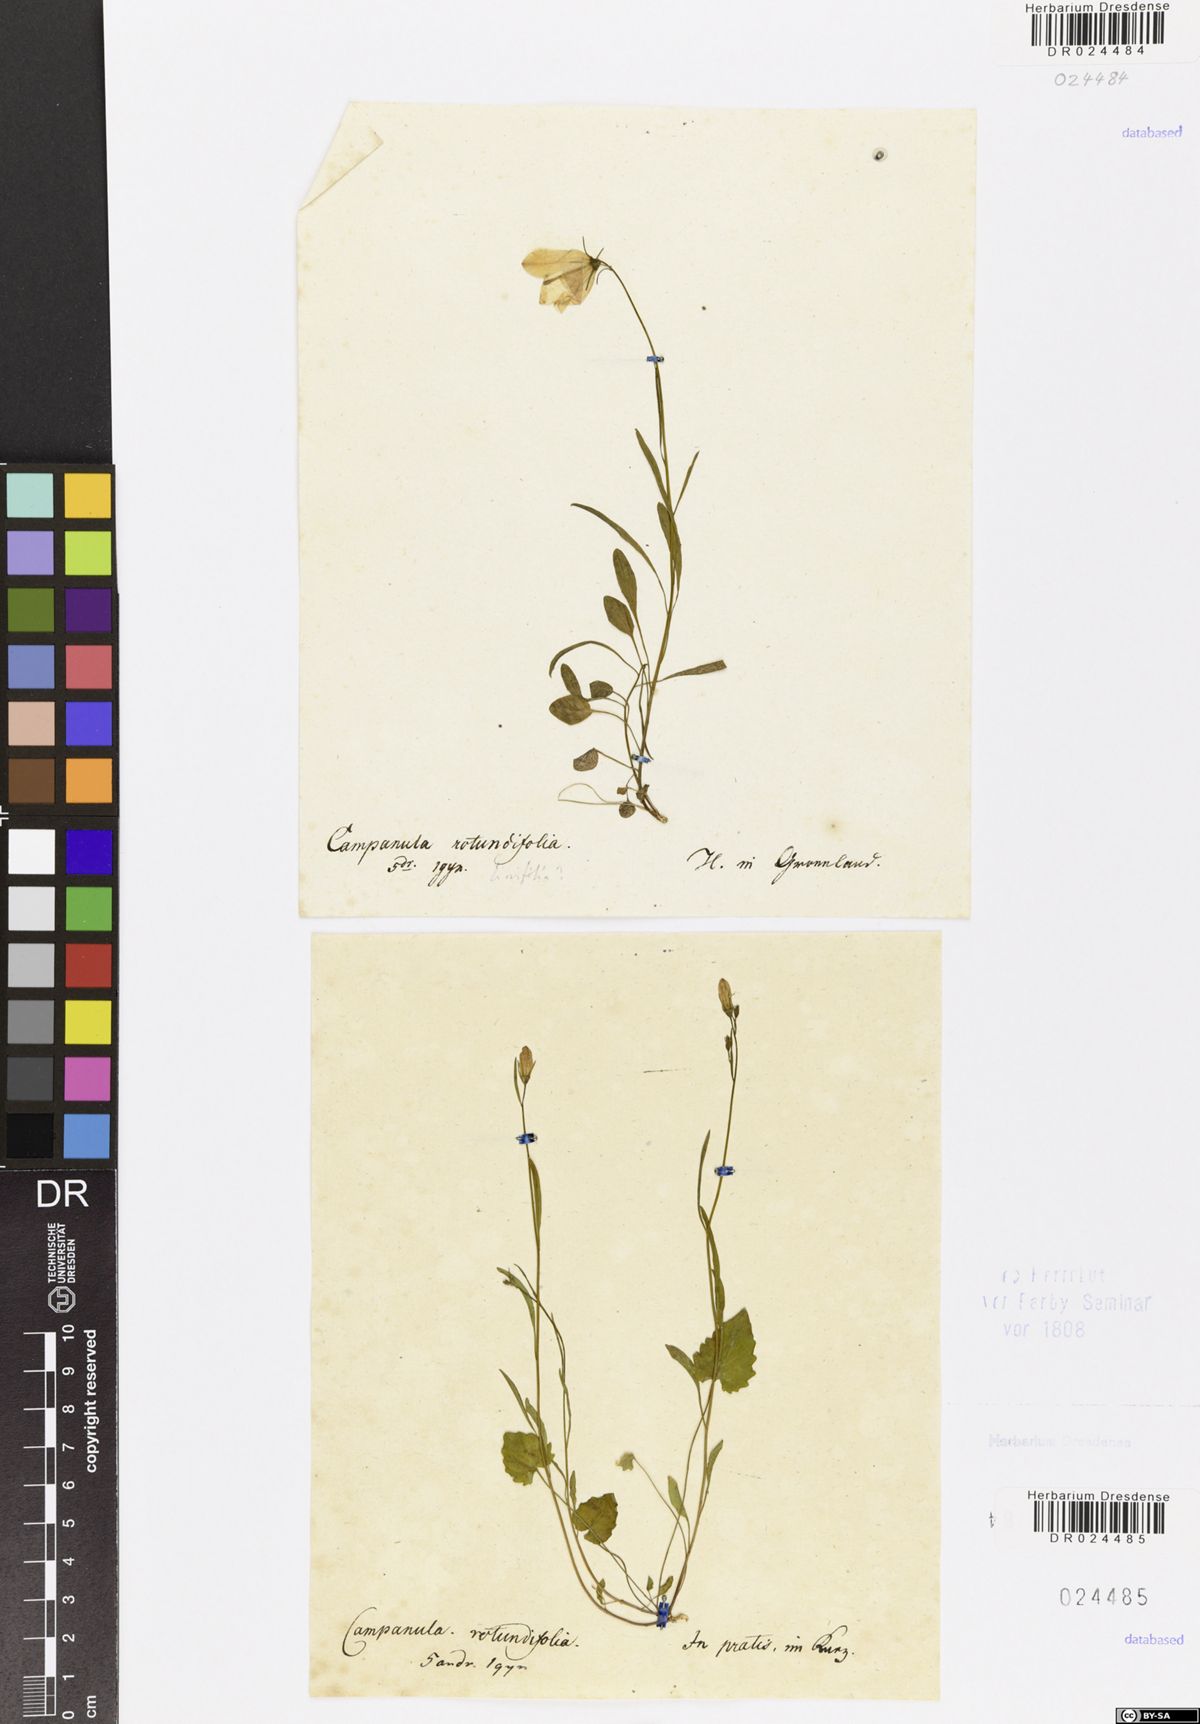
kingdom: Plantae
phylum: Tracheophyta
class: Magnoliopsida
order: Asterales
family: Campanulaceae
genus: Campanula
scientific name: Campanula rotundifolia
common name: Harebell
